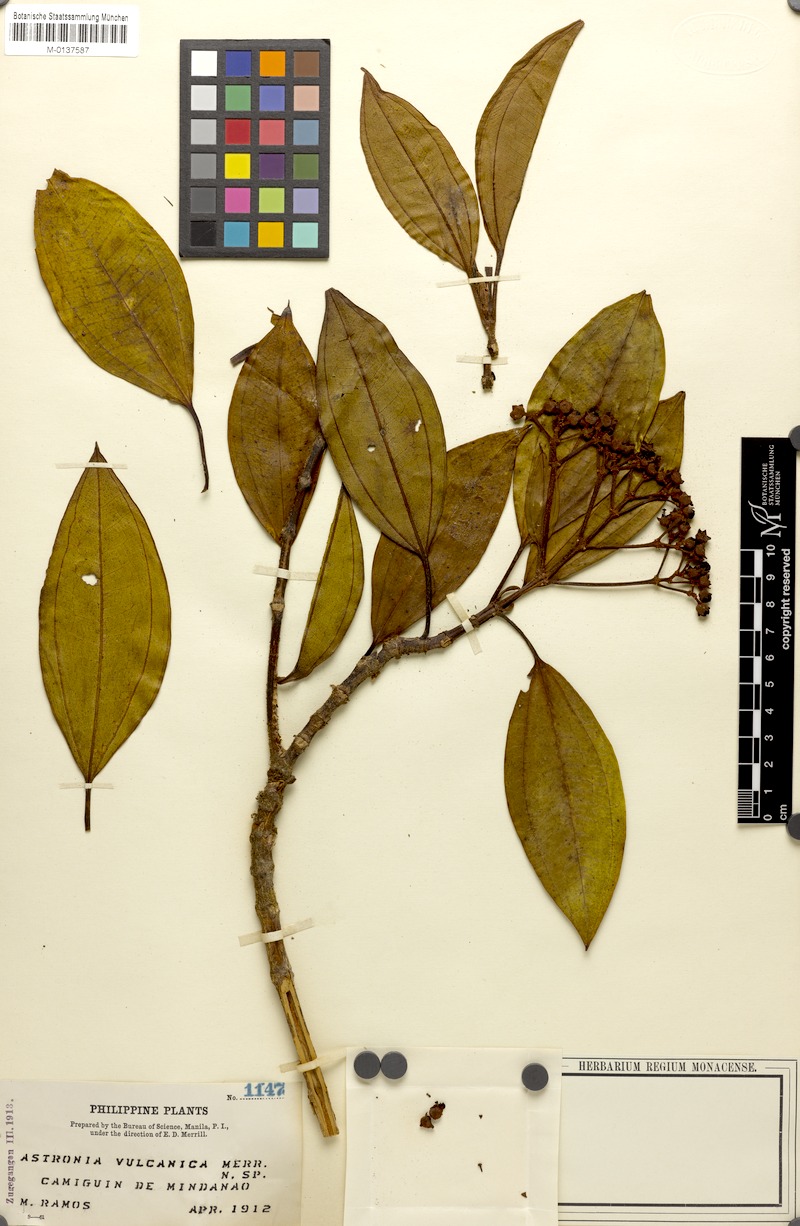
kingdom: Plantae
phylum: Tracheophyta
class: Magnoliopsida
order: Myrtales
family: Melastomataceae
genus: Medinilla
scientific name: Medinilla multiflora
